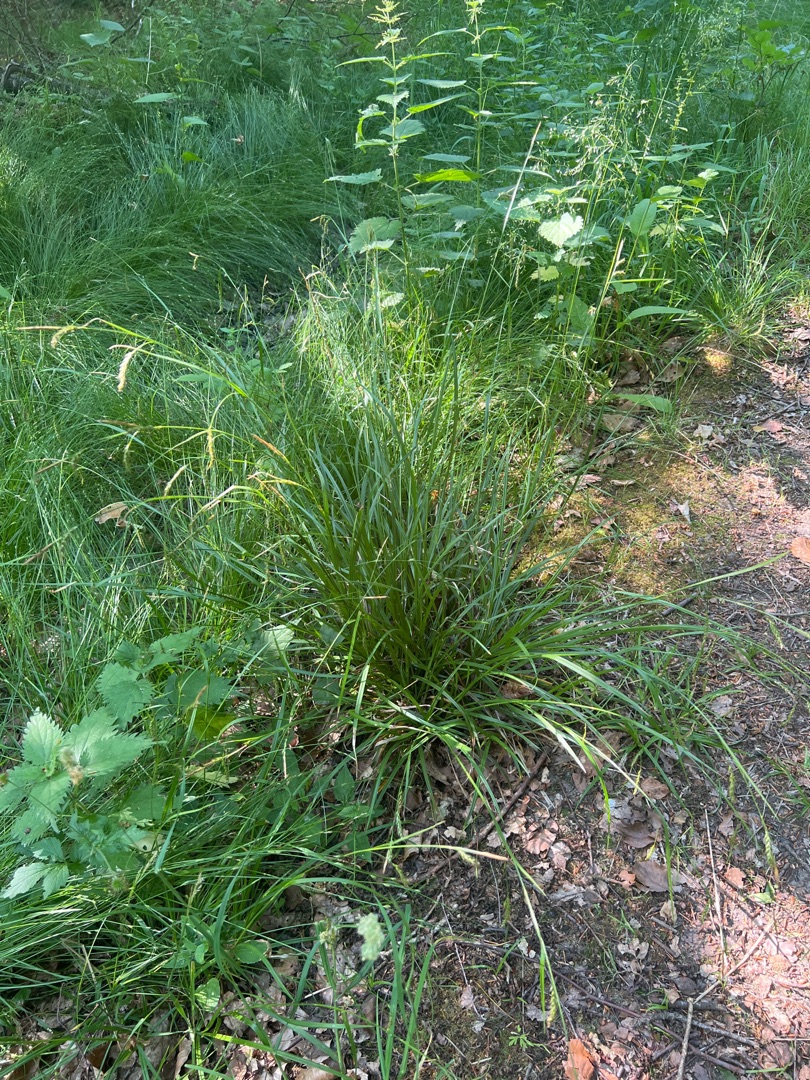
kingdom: Plantae
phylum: Tracheophyta
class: Liliopsida
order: Poales
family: Cyperaceae
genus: Carex
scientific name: Carex sylvatica
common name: Skov-star
